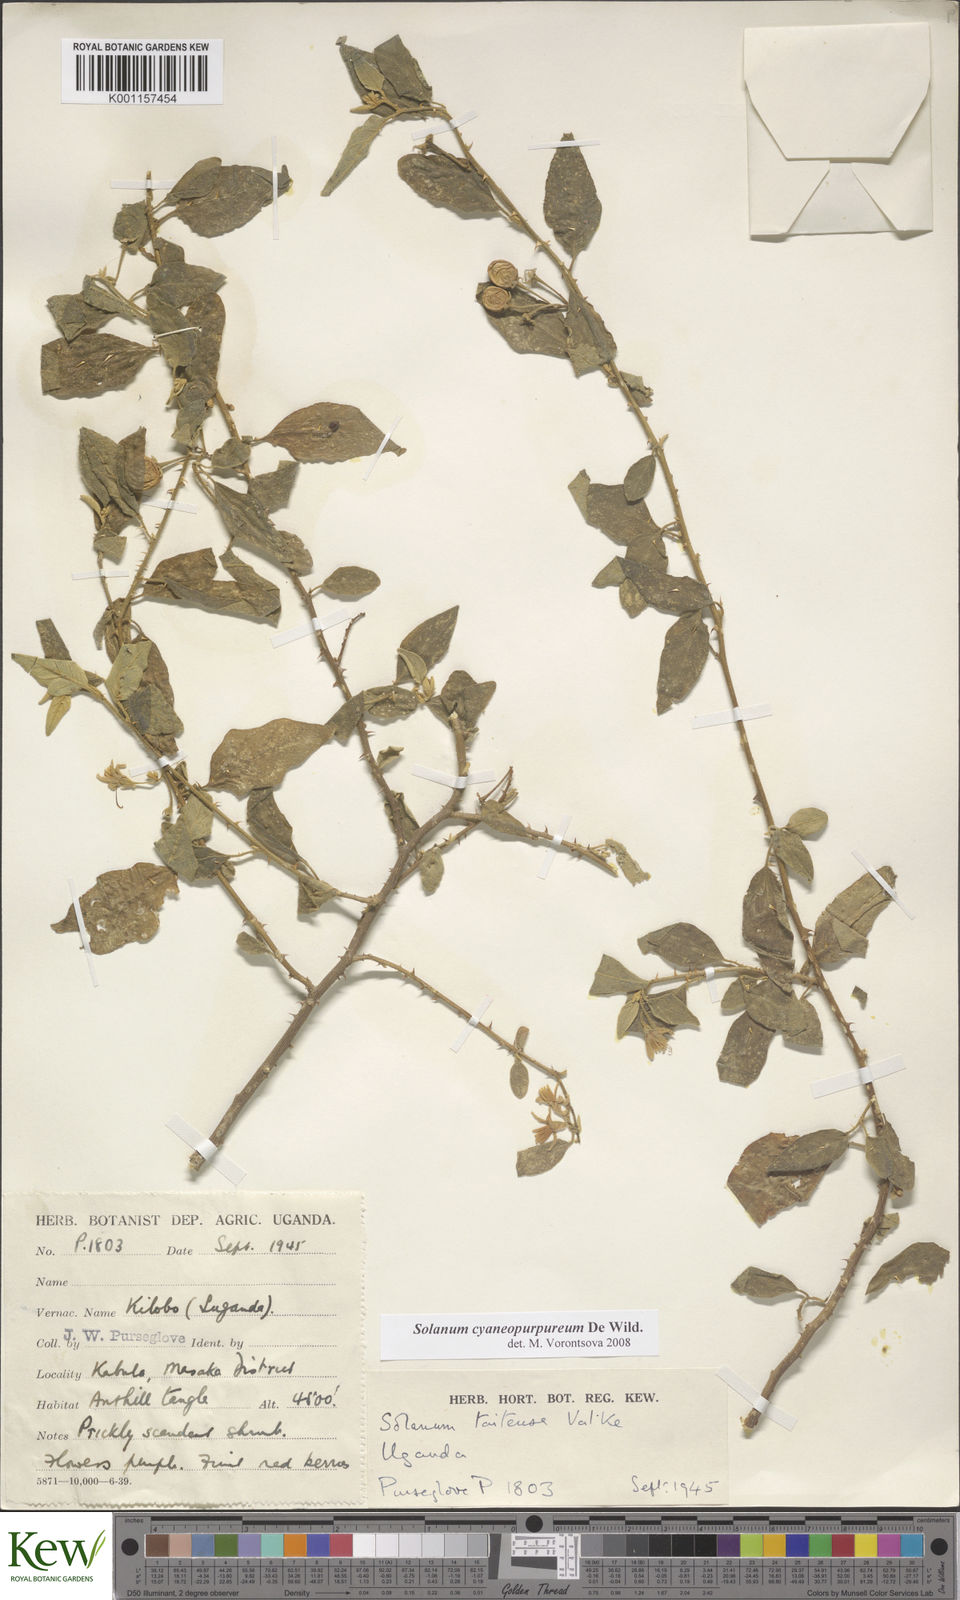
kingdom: Plantae
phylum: Tracheophyta
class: Magnoliopsida
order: Solanales
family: Solanaceae
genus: Solanum
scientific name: Solanum cyaneopurpureum
